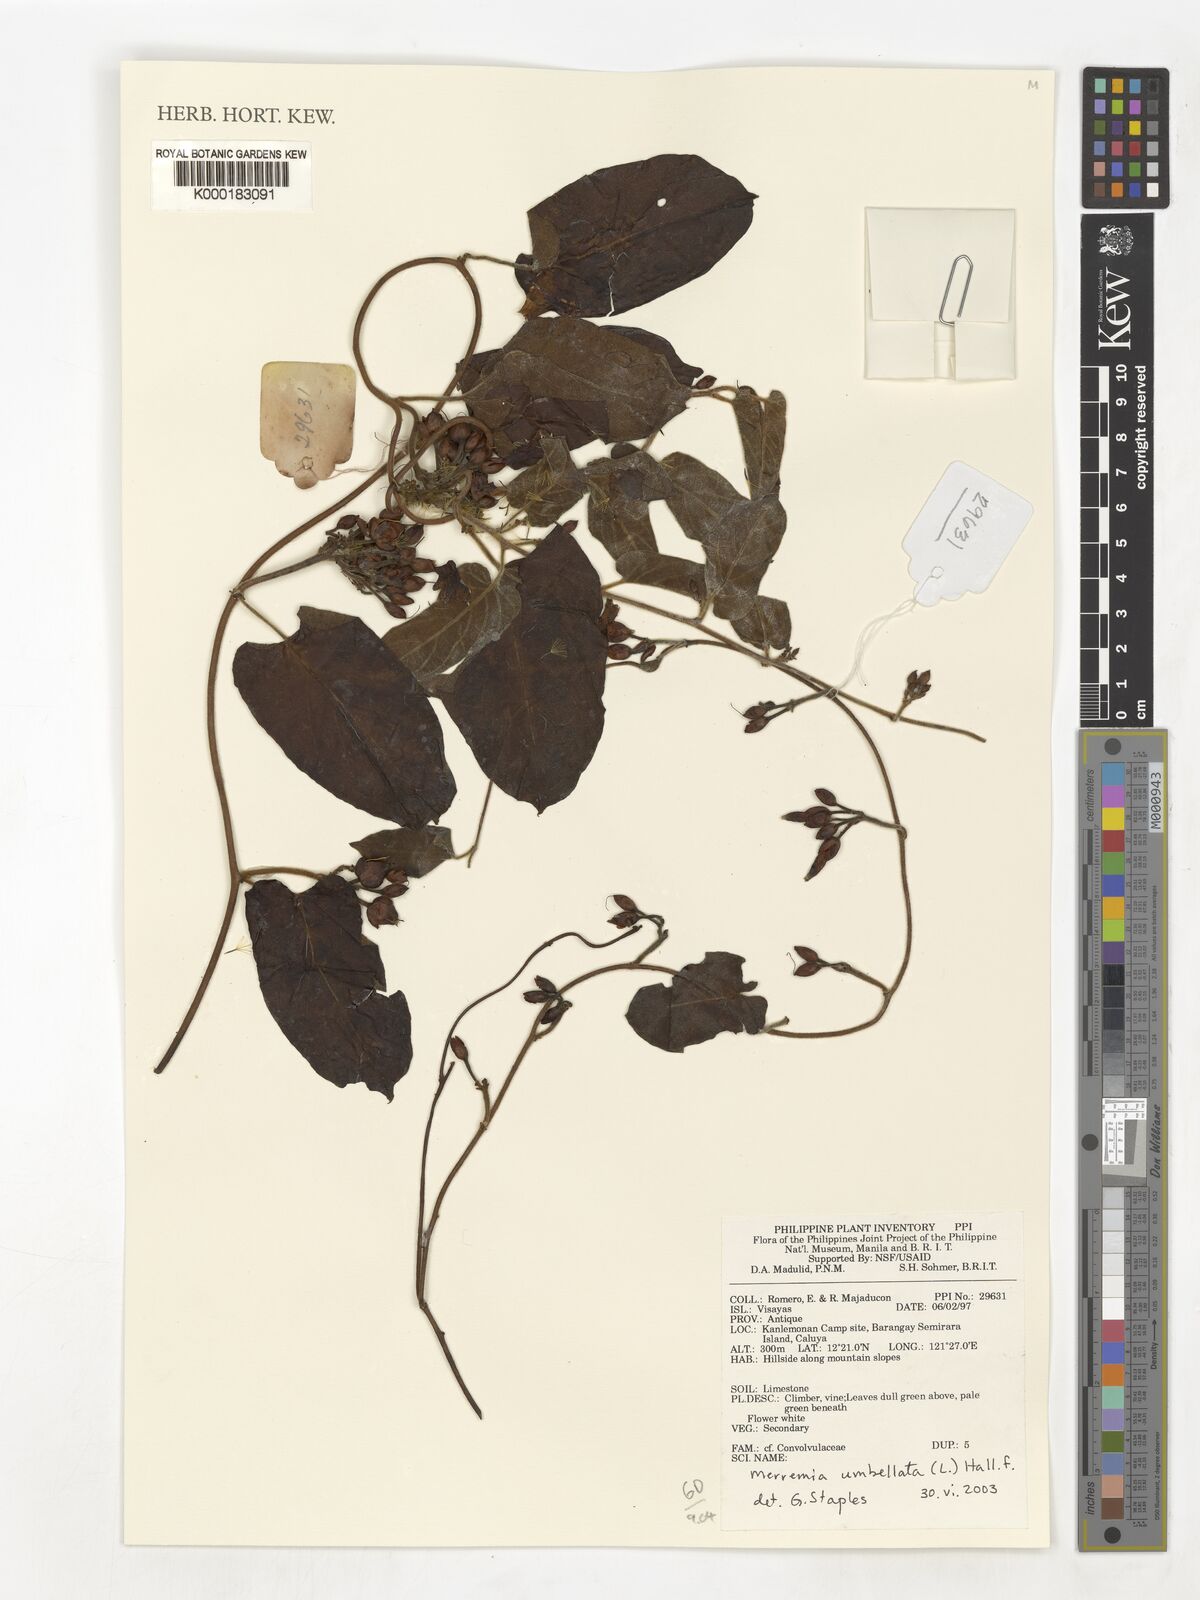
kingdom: Plantae
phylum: Tracheophyta
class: Magnoliopsida
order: Solanales
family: Convolvulaceae
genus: Camonea
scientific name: Camonea umbellata
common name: Hogvine
